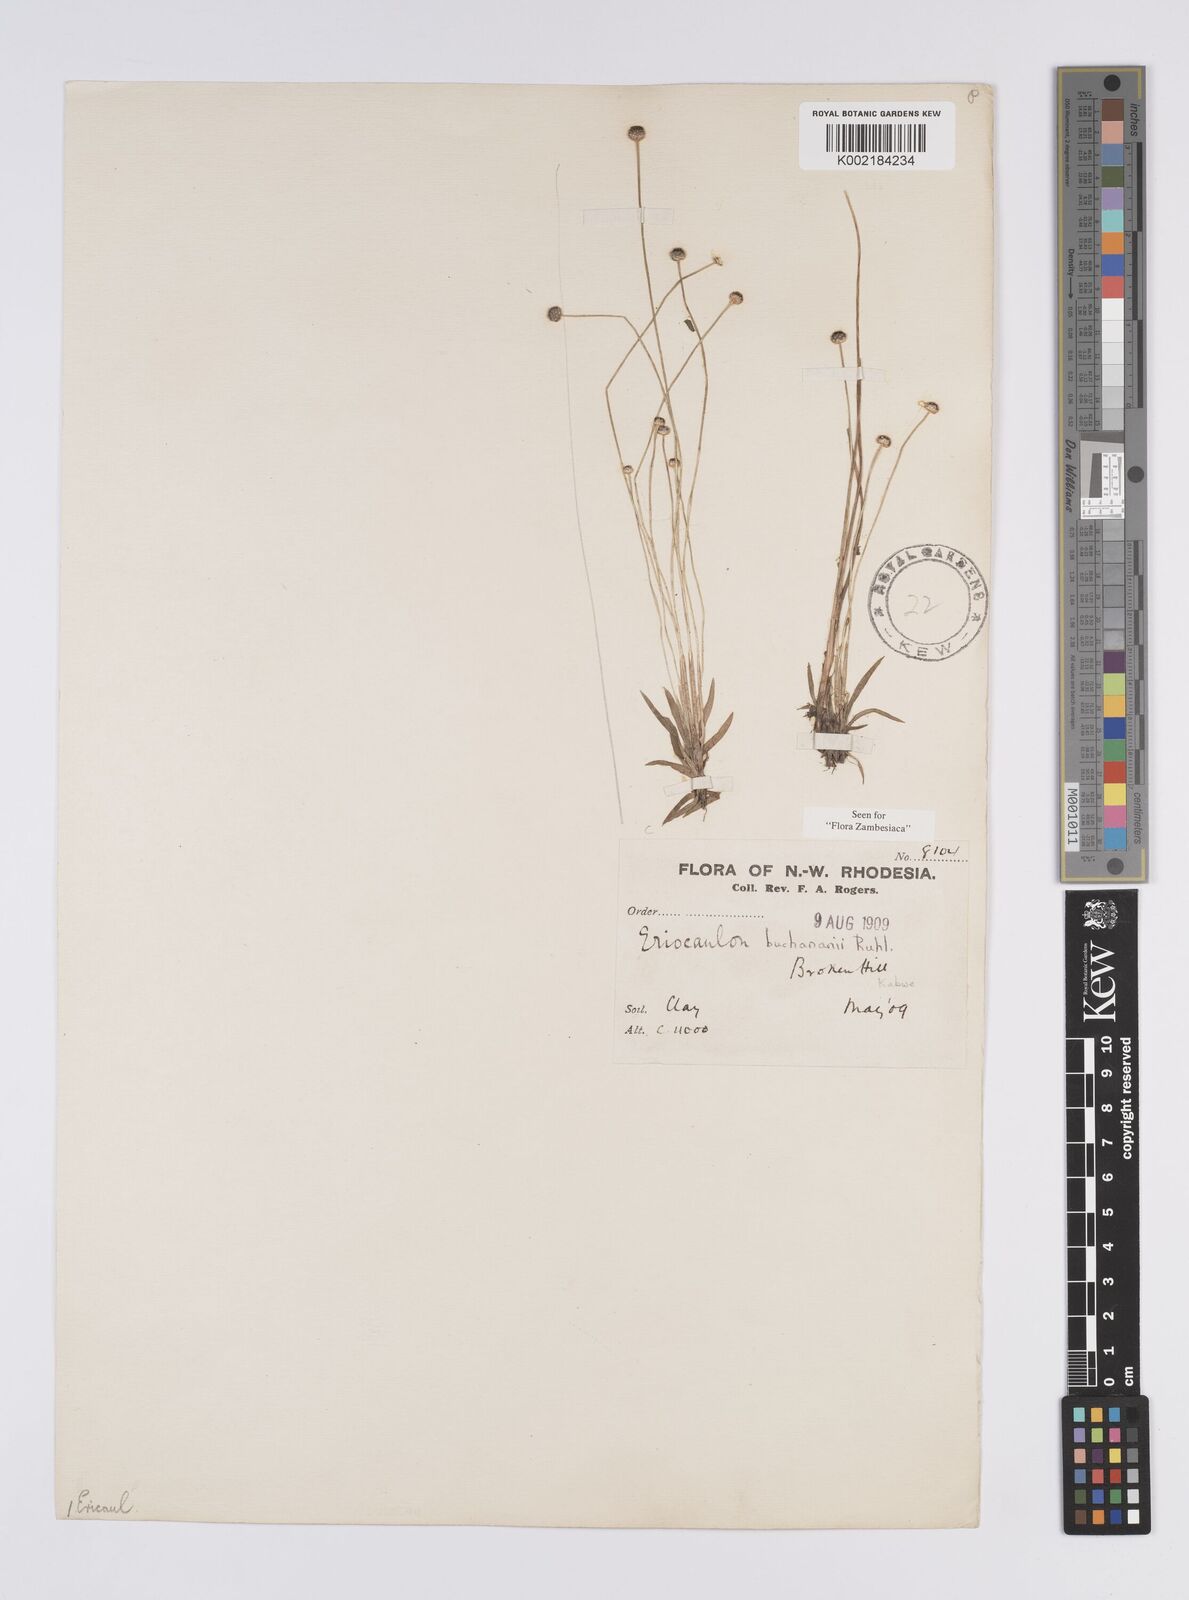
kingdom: Plantae
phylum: Tracheophyta
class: Liliopsida
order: Poales
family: Eriocaulaceae
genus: Eriocaulon
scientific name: Eriocaulon buchananii
